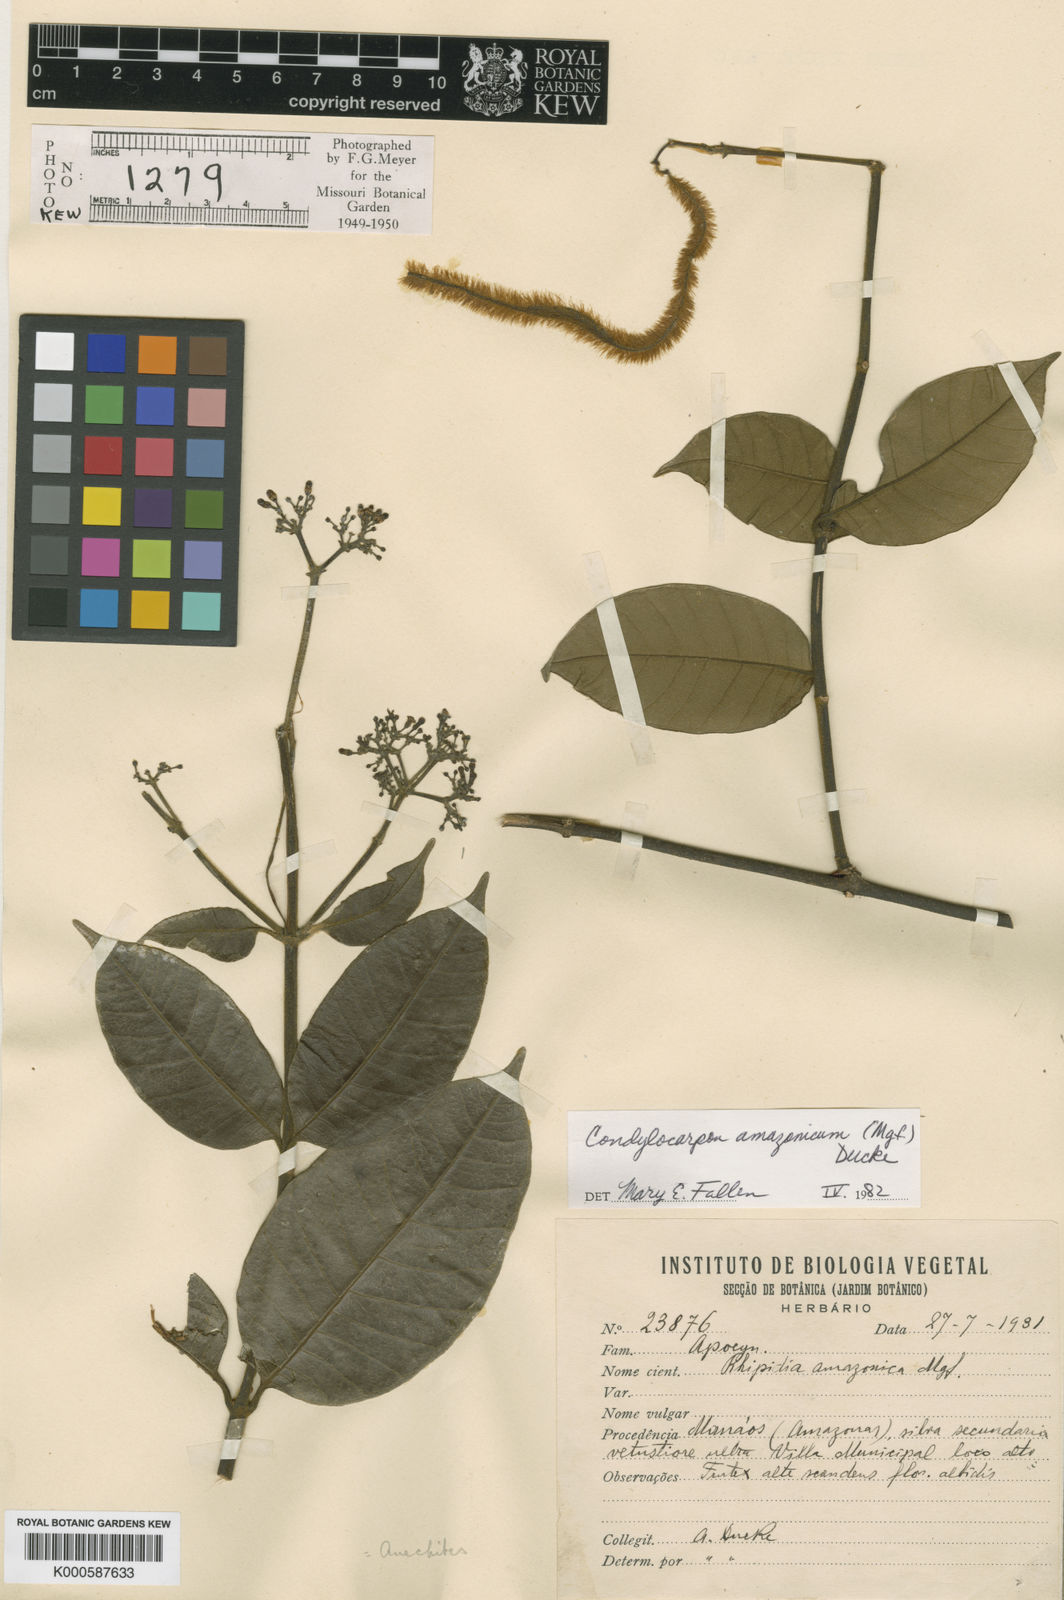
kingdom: Plantae
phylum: Tracheophyta
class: Magnoliopsida
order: Gentianales
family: Apocynaceae
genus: Condylocarpon
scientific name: Condylocarpon amazonicum
